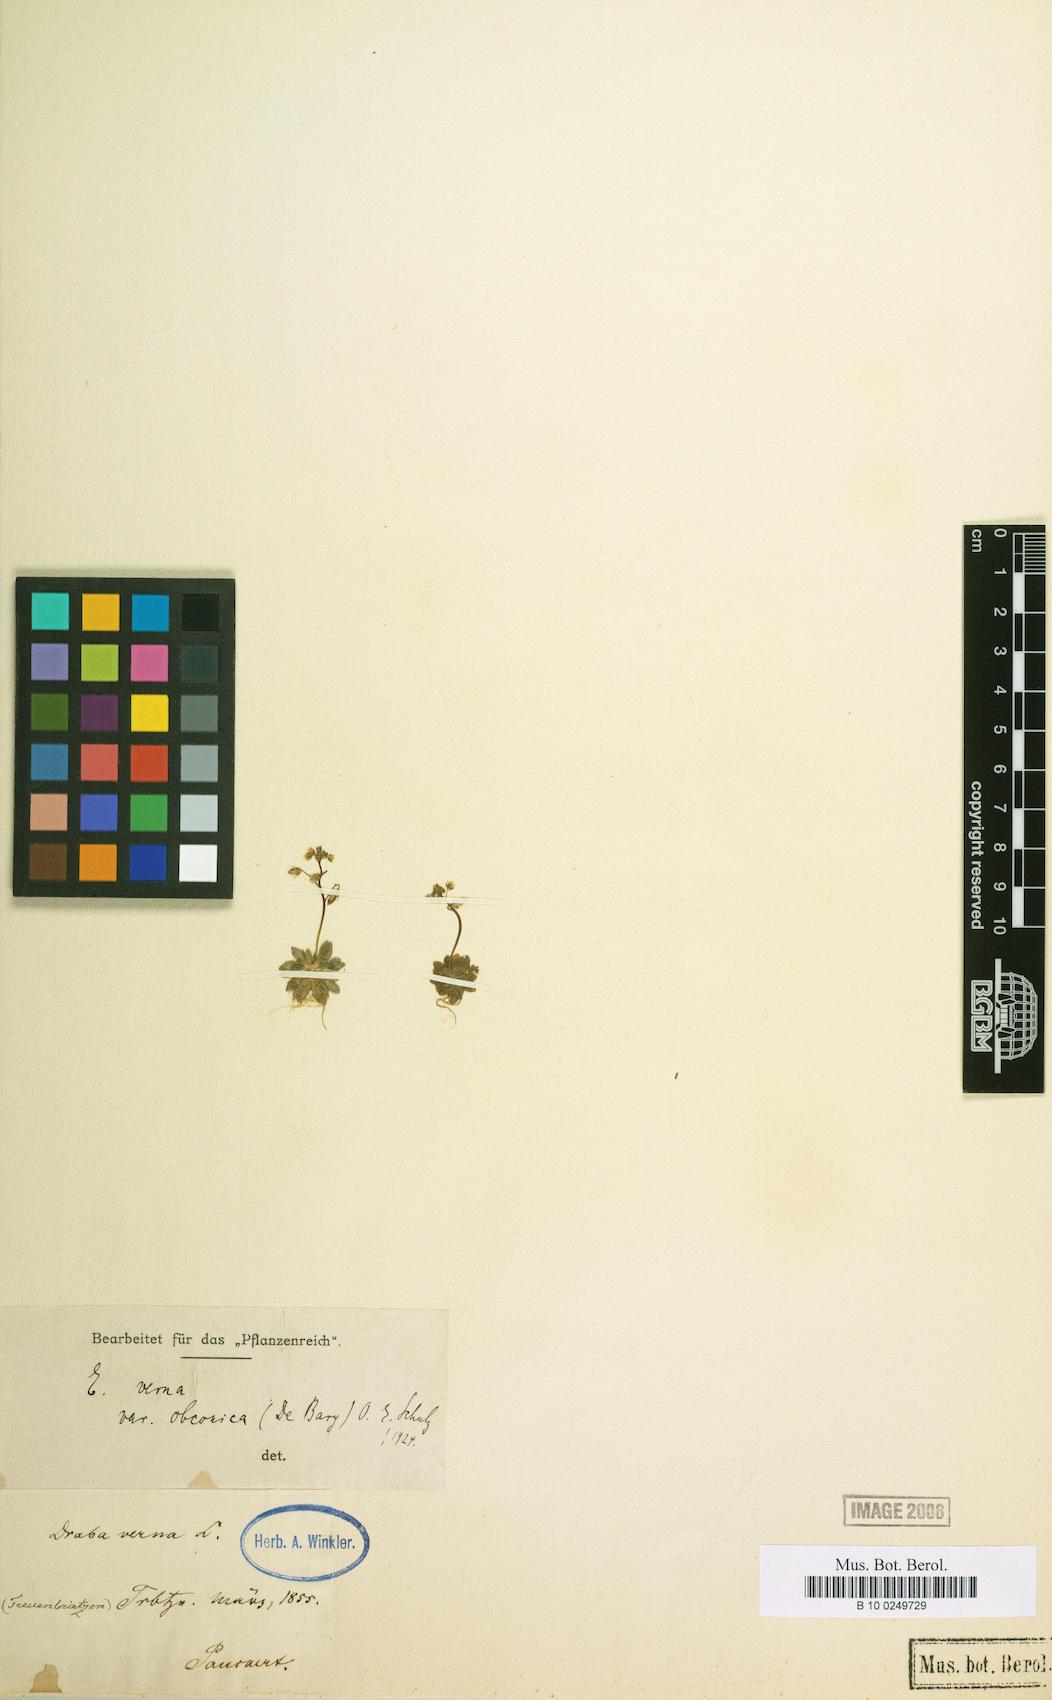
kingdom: Plantae
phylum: Tracheophyta
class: Magnoliopsida
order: Brassicales
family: Brassicaceae
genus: Draba
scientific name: Draba verna
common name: Spring draba
